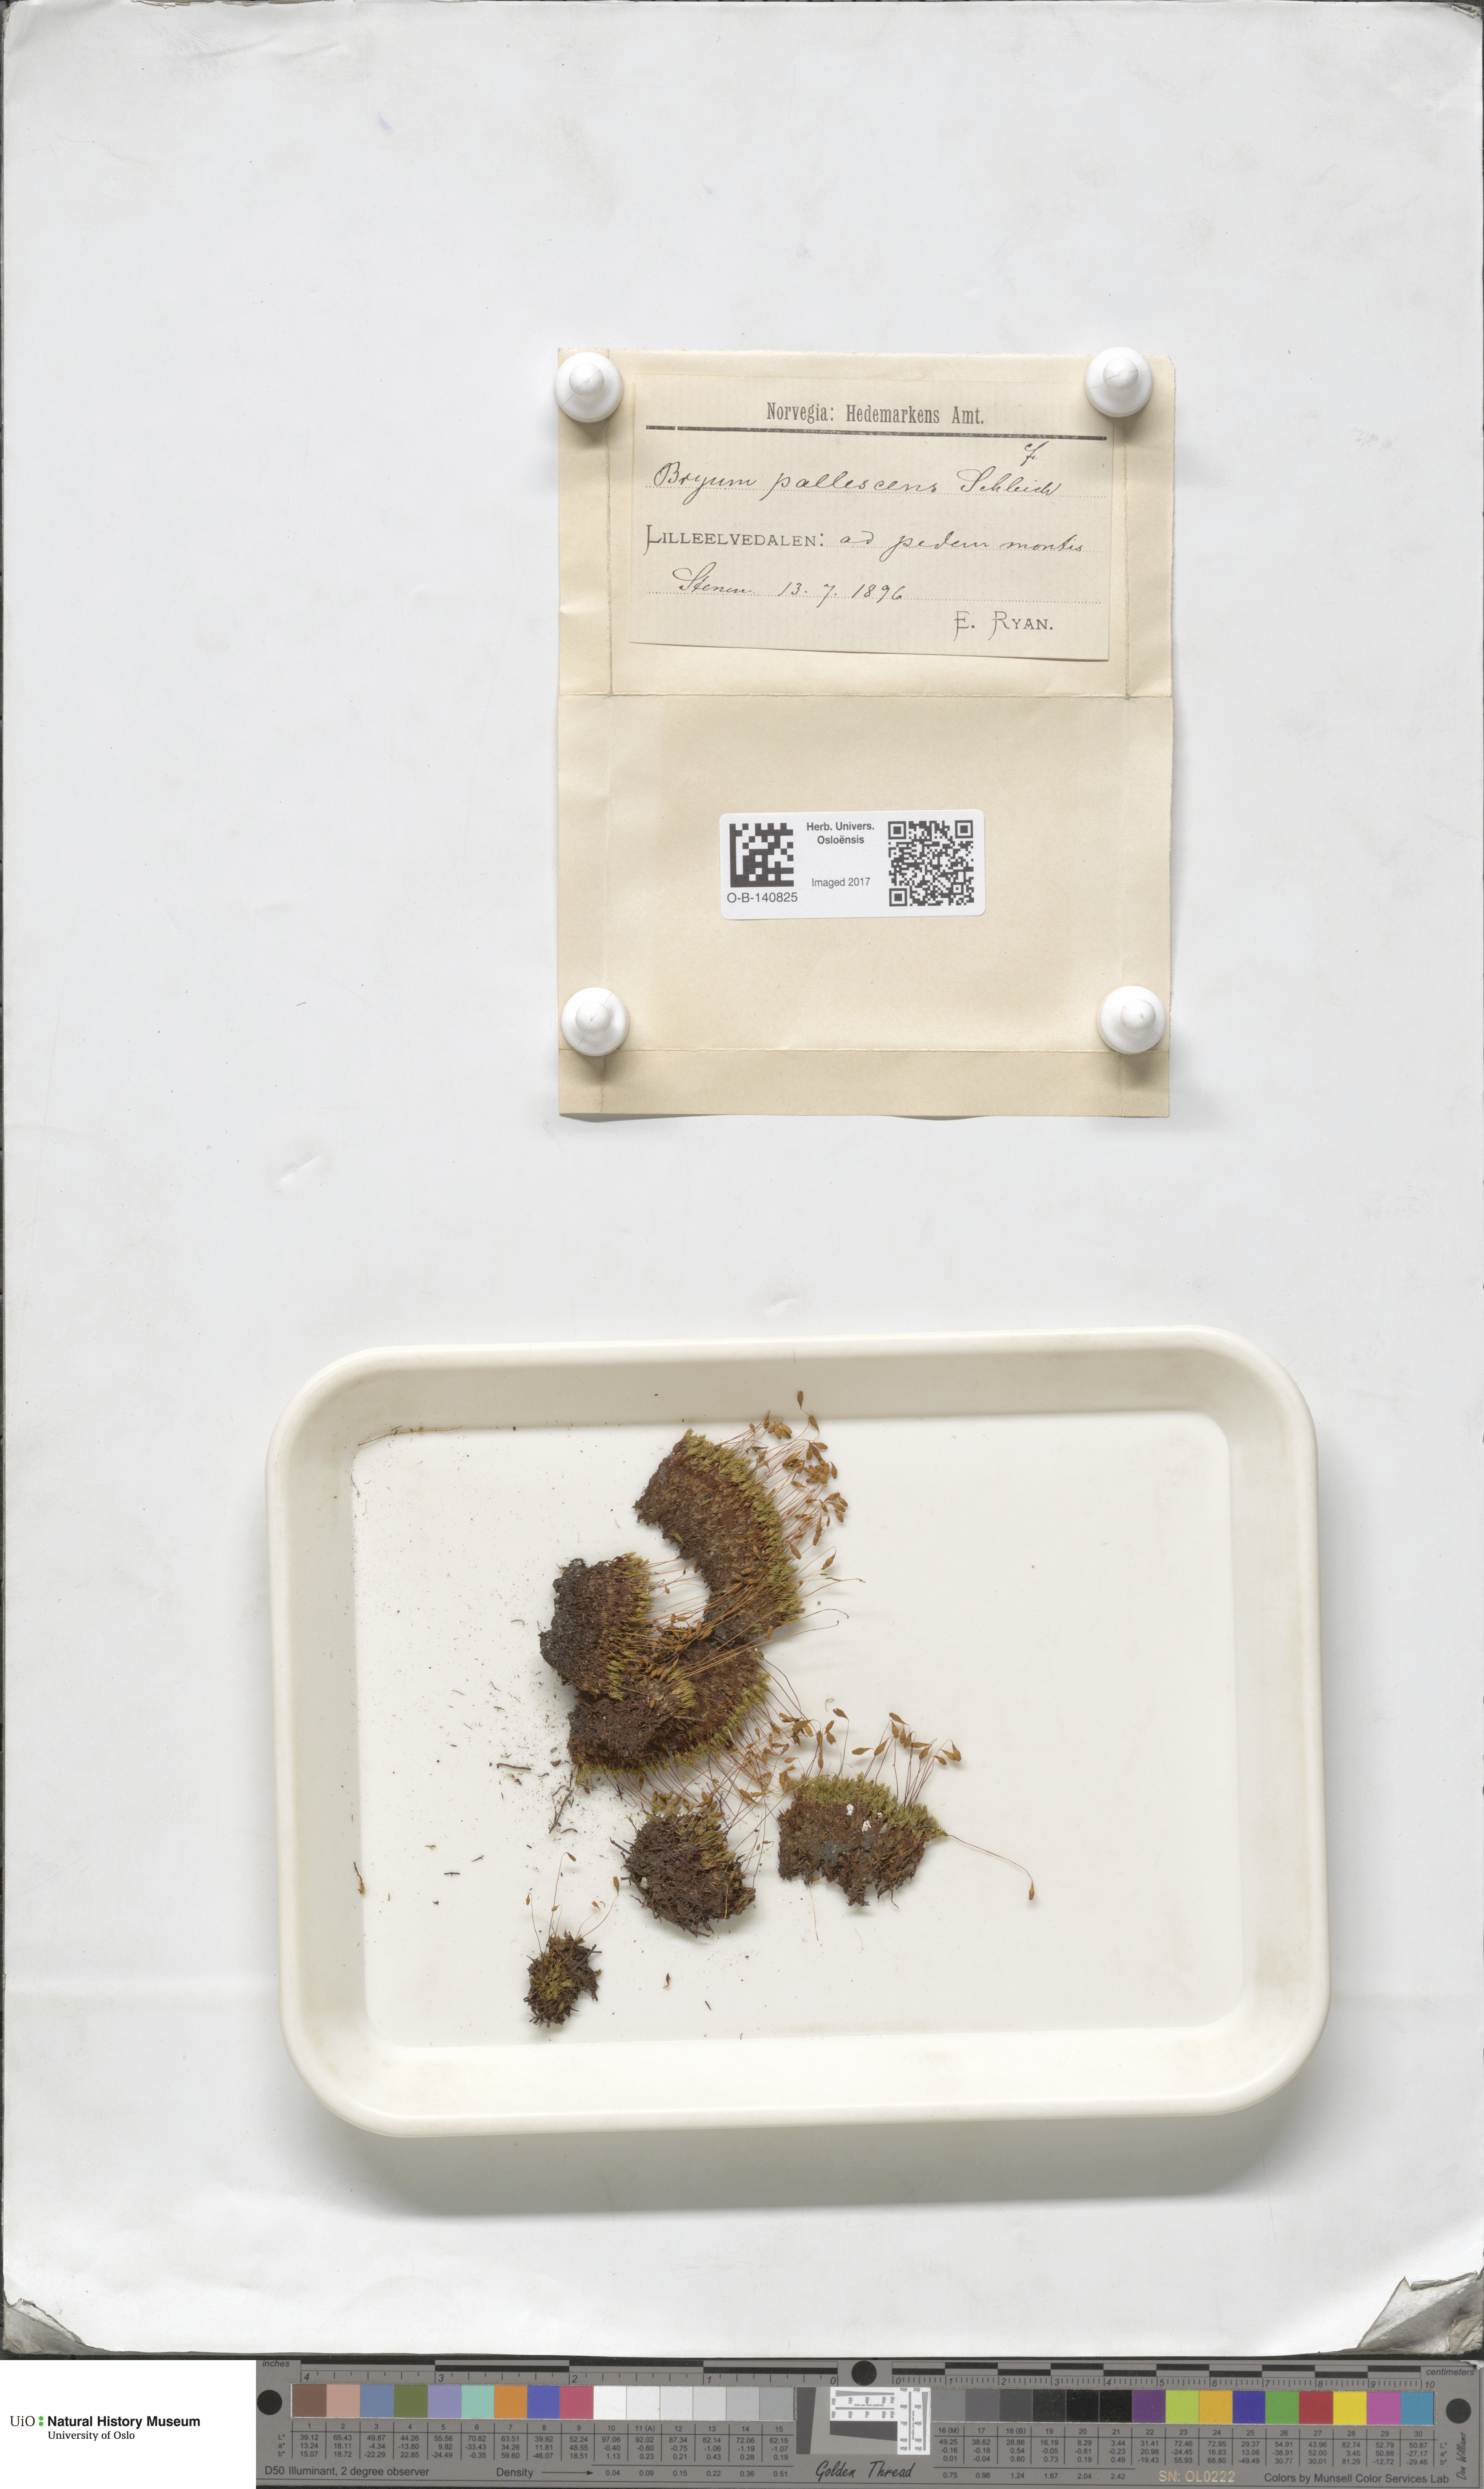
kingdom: Plantae
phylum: Bryophyta
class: Bryopsida
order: Bryales
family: Bryaceae
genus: Ptychostomum
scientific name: Ptychostomum pallescens
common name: Tall-clustered thread-moss
